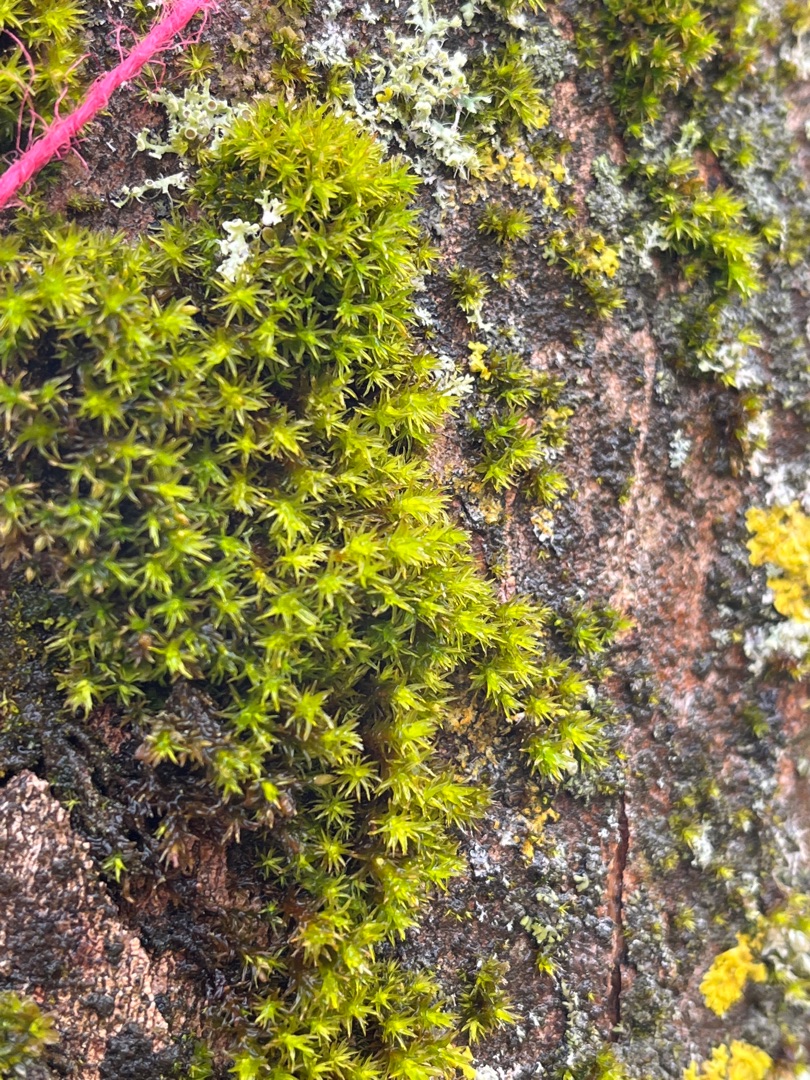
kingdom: Plantae
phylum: Bryophyta
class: Bryopsida
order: Orthotrichales
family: Orthotrichaceae
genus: Lewinskya
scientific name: Lewinskya affinis
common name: Almindelig furehætte
